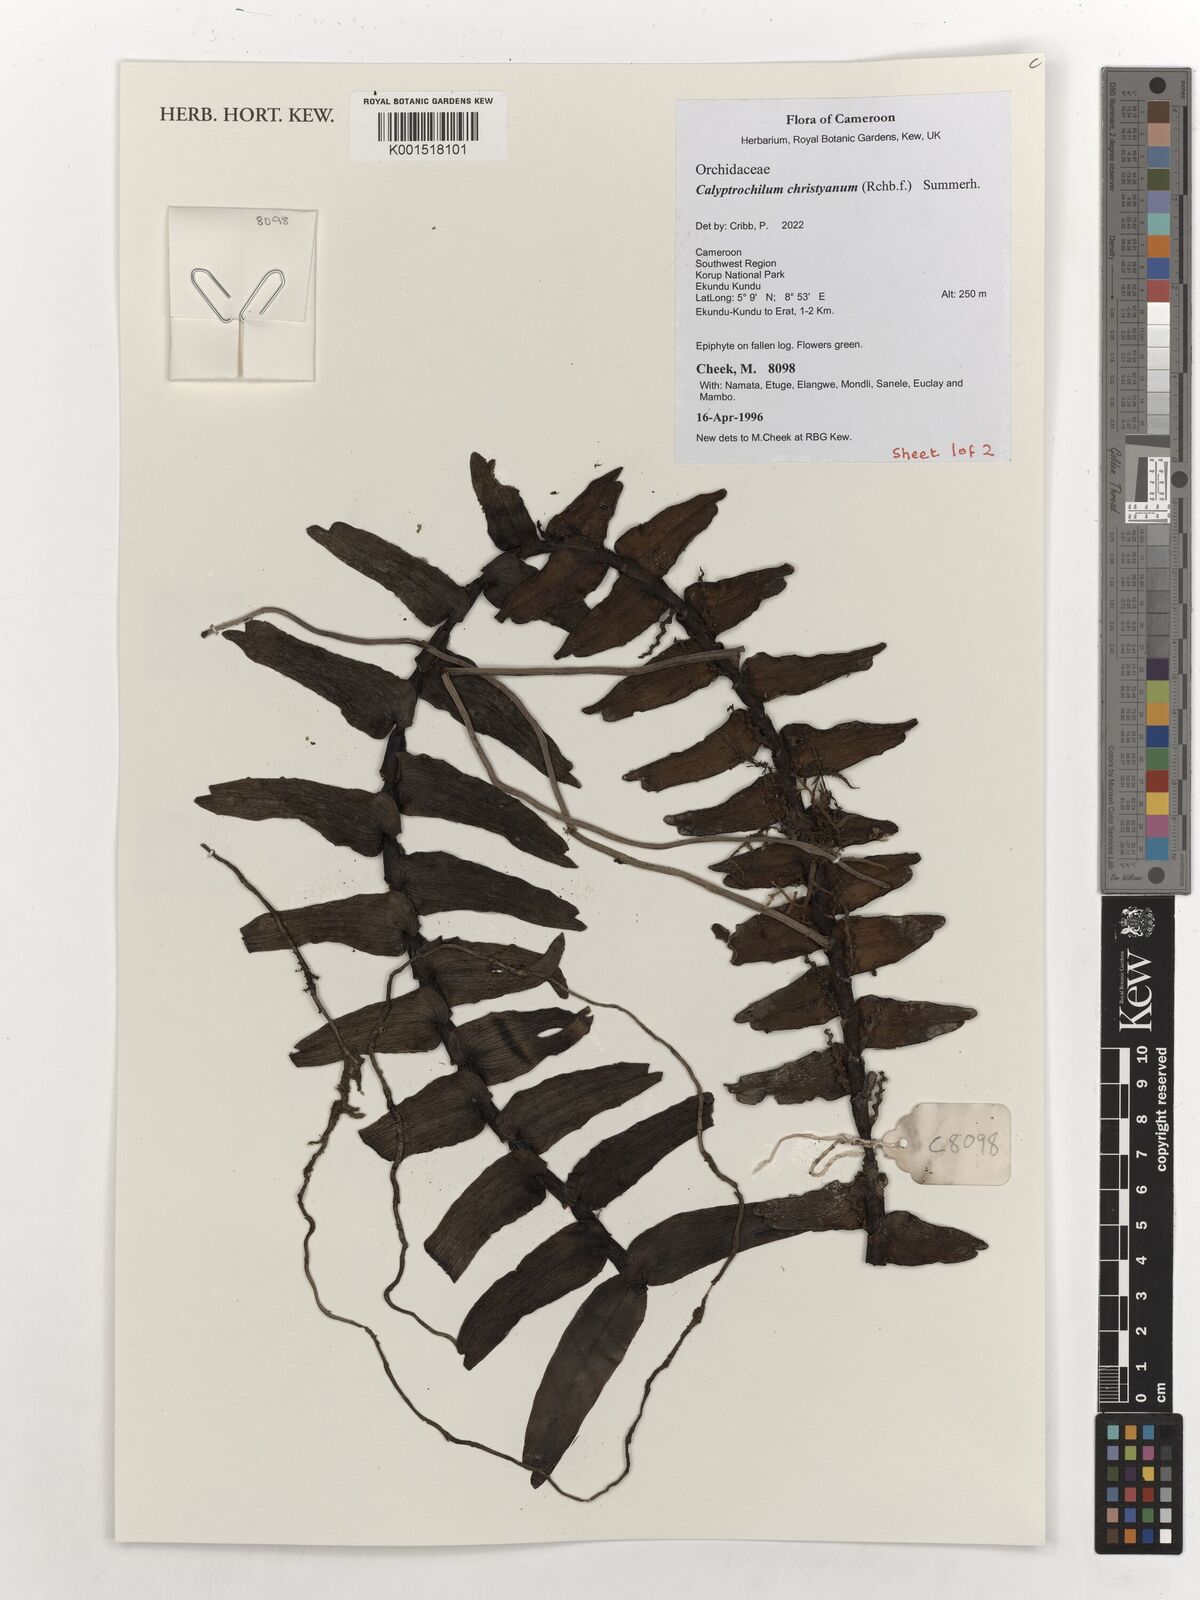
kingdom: Plantae
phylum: Tracheophyta
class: Liliopsida
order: Asparagales
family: Orchidaceae
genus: Calyptrochilum
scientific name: Calyptrochilum christyanum
